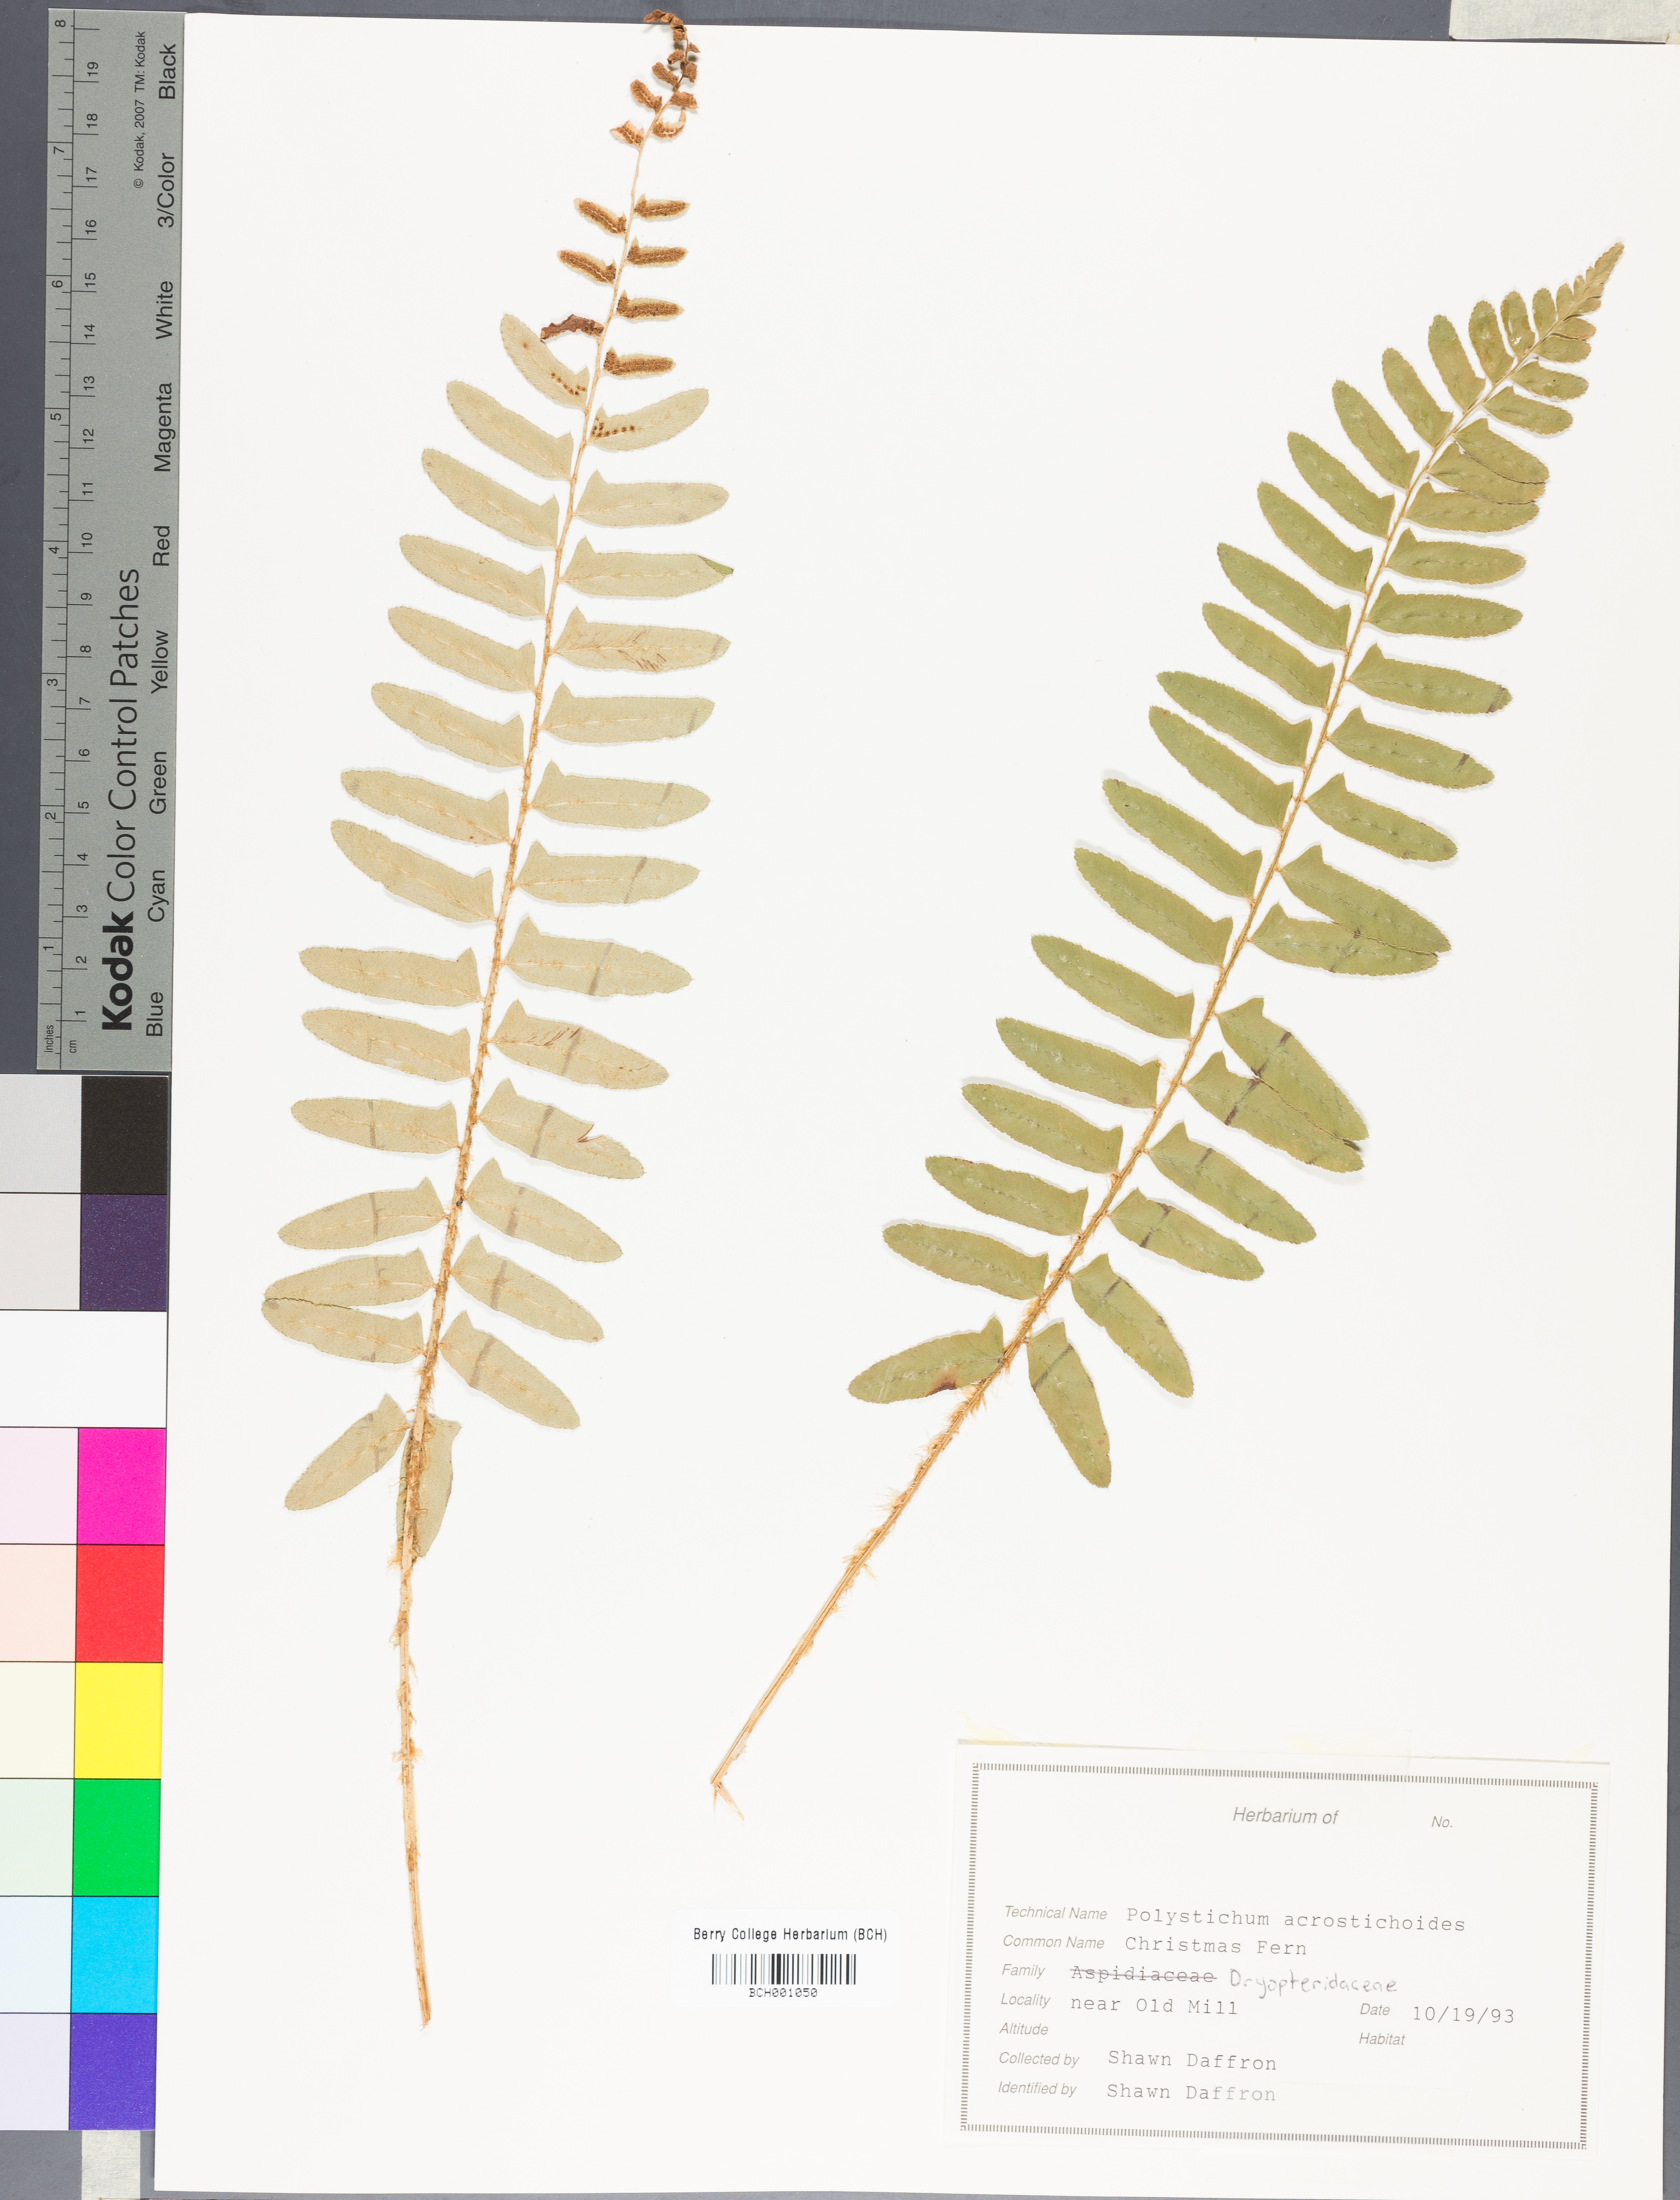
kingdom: Plantae
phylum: Tracheophyta
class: Polypodiopsida
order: Polypodiales
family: Dryopteridaceae
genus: Polystichum
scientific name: Polystichum acrostichoides
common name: Christmas fern
